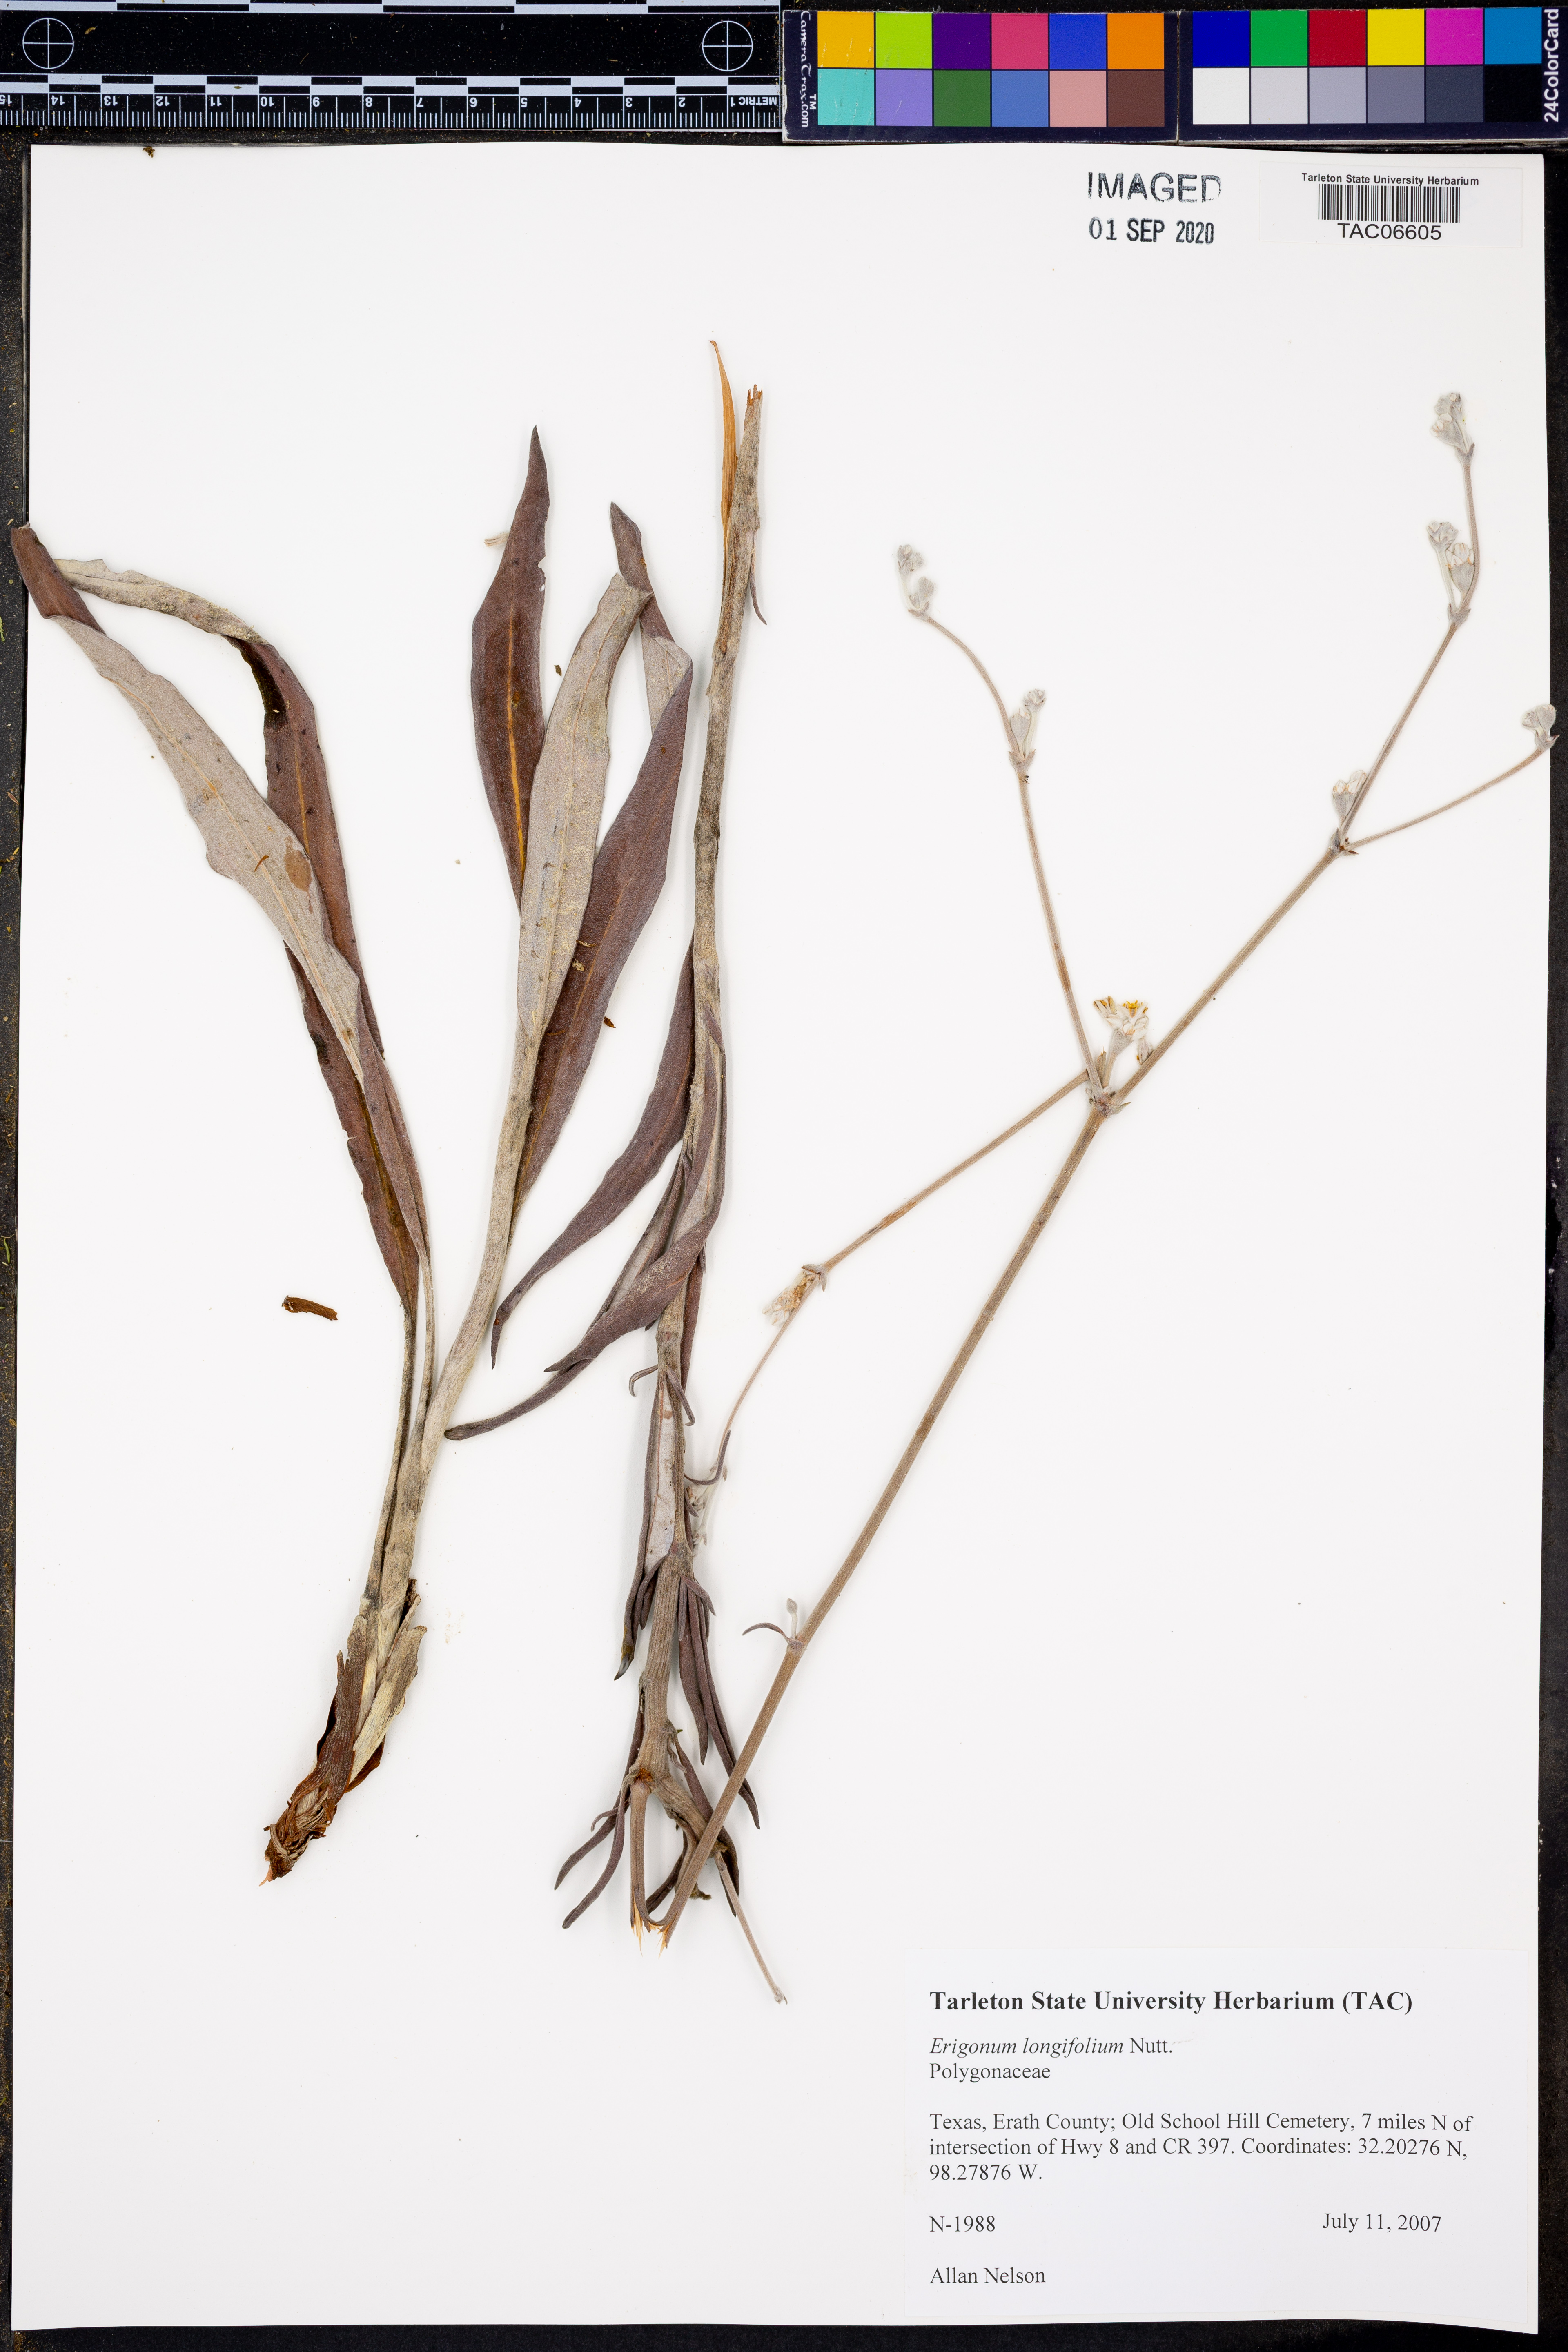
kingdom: Plantae
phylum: Tracheophyta
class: Magnoliopsida
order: Caryophyllales
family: Polygonaceae
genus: Eriogonum
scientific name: Eriogonum longifolium
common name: Longleaf wild buckwheat
